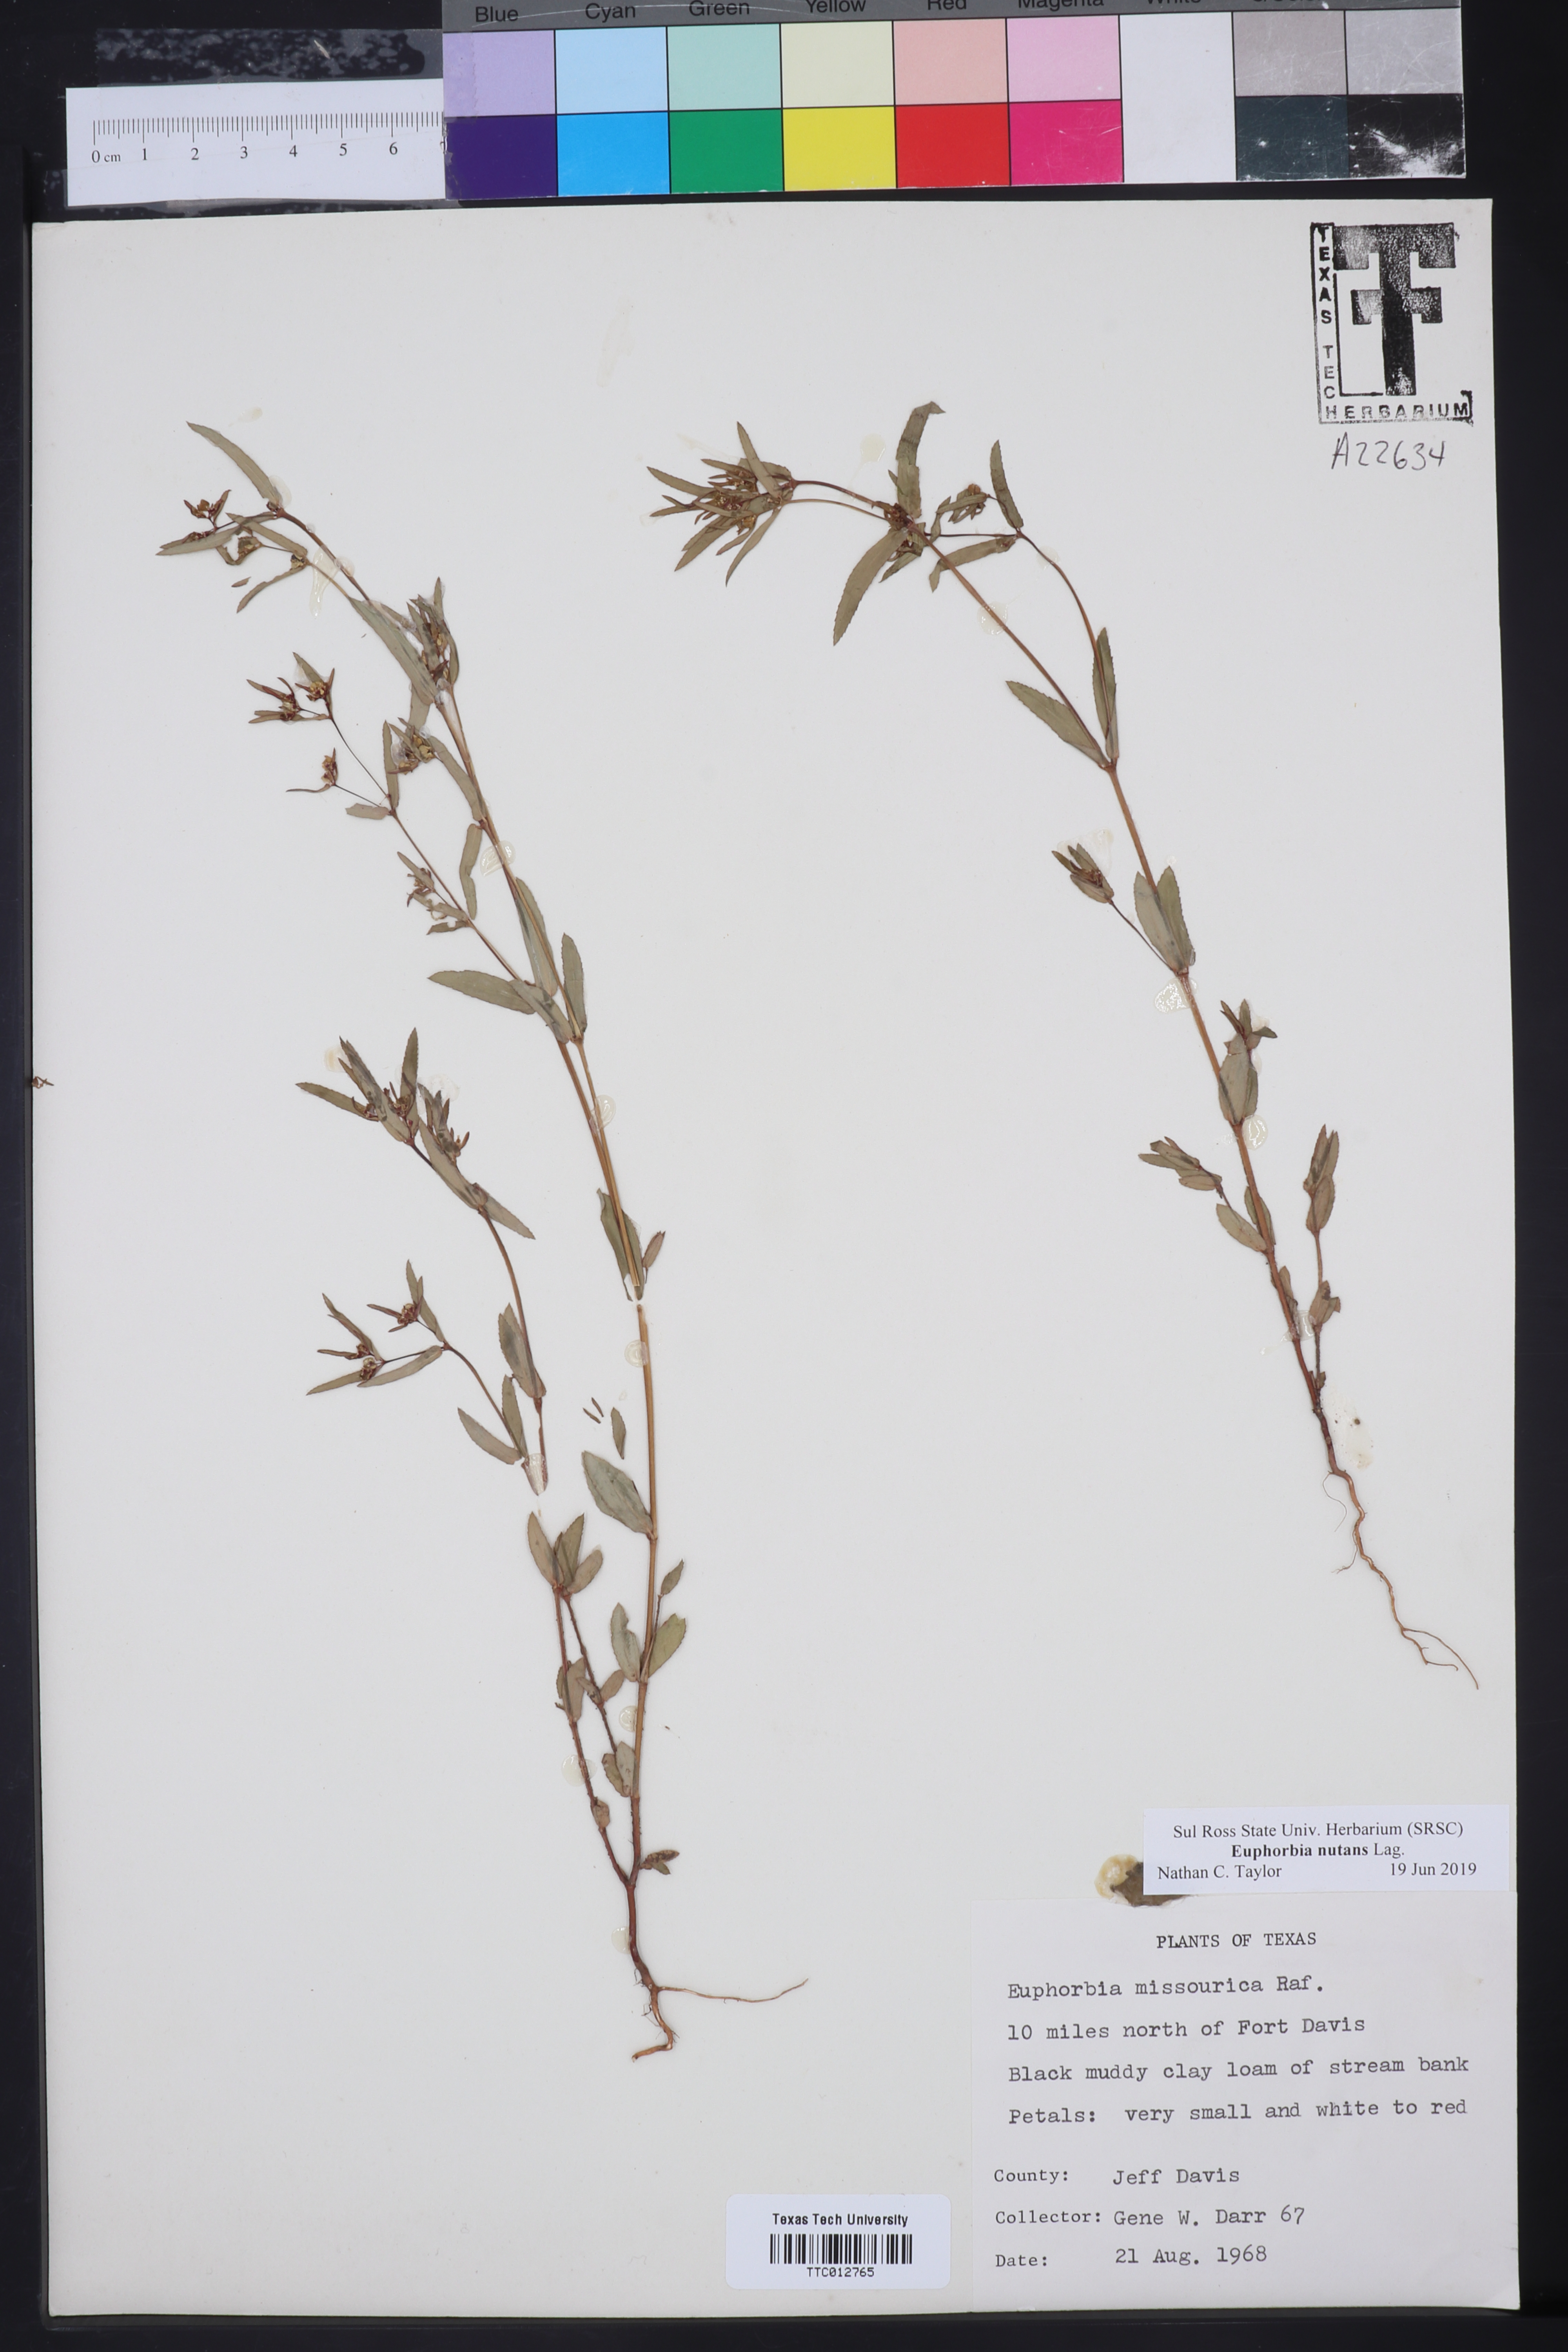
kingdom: Plantae
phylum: Tracheophyta
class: Magnoliopsida
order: Malpighiales
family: Euphorbiaceae
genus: Euphorbia
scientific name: Euphorbia nutans
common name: Eyebane
